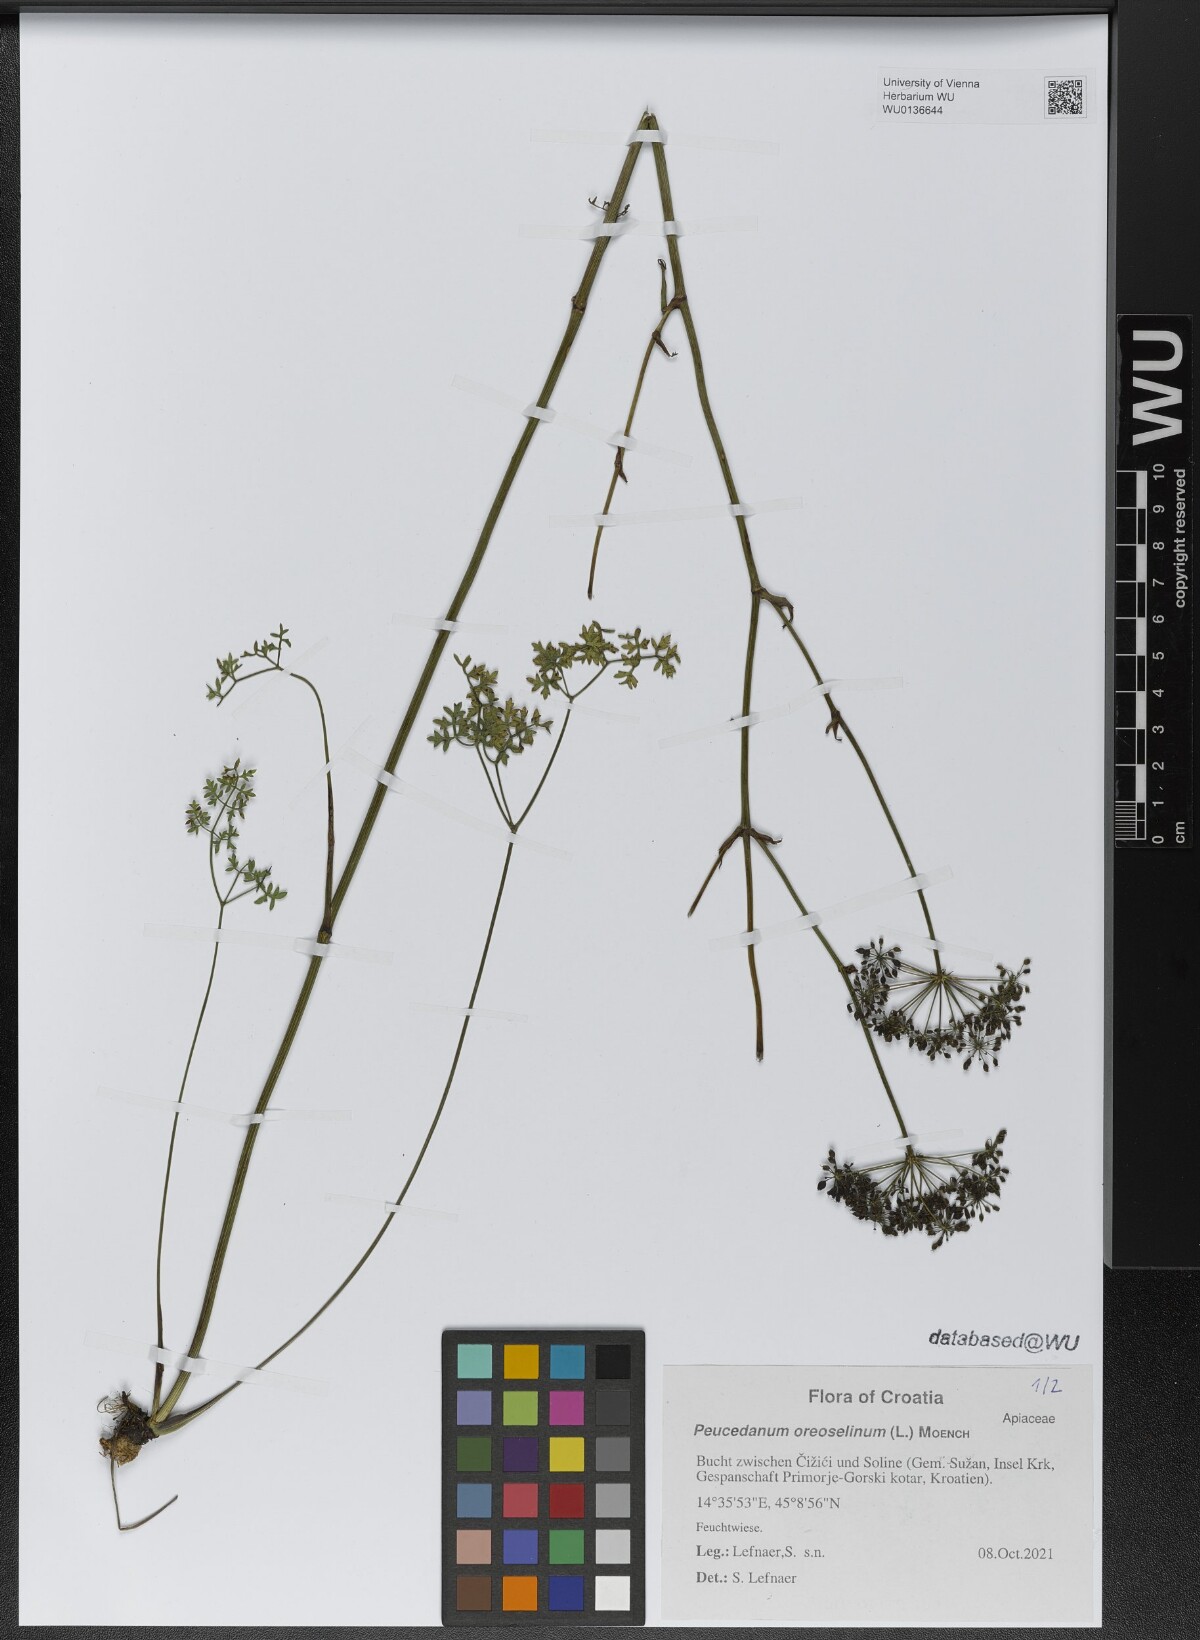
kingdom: Plantae
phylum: Tracheophyta
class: Magnoliopsida
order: Apiales
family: Apiaceae
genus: Oreoselinum
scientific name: Oreoselinum nigrum
